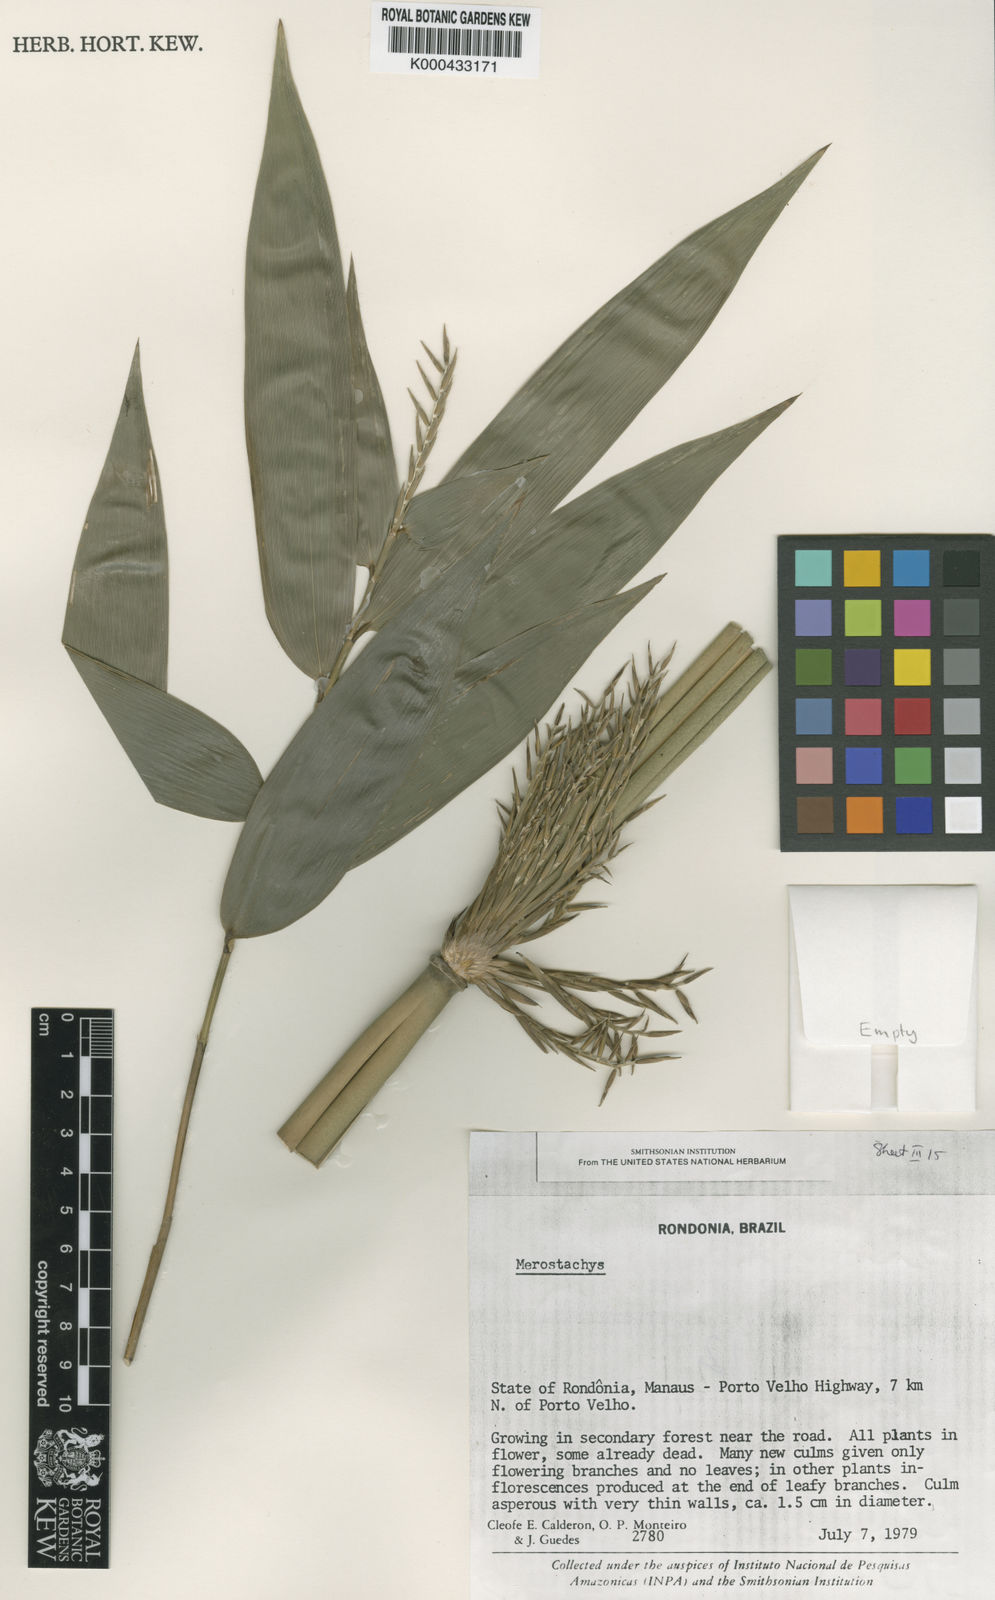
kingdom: Plantae
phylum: Tracheophyta
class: Liliopsida
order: Poales
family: Poaceae
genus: Merostachys
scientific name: Merostachys
